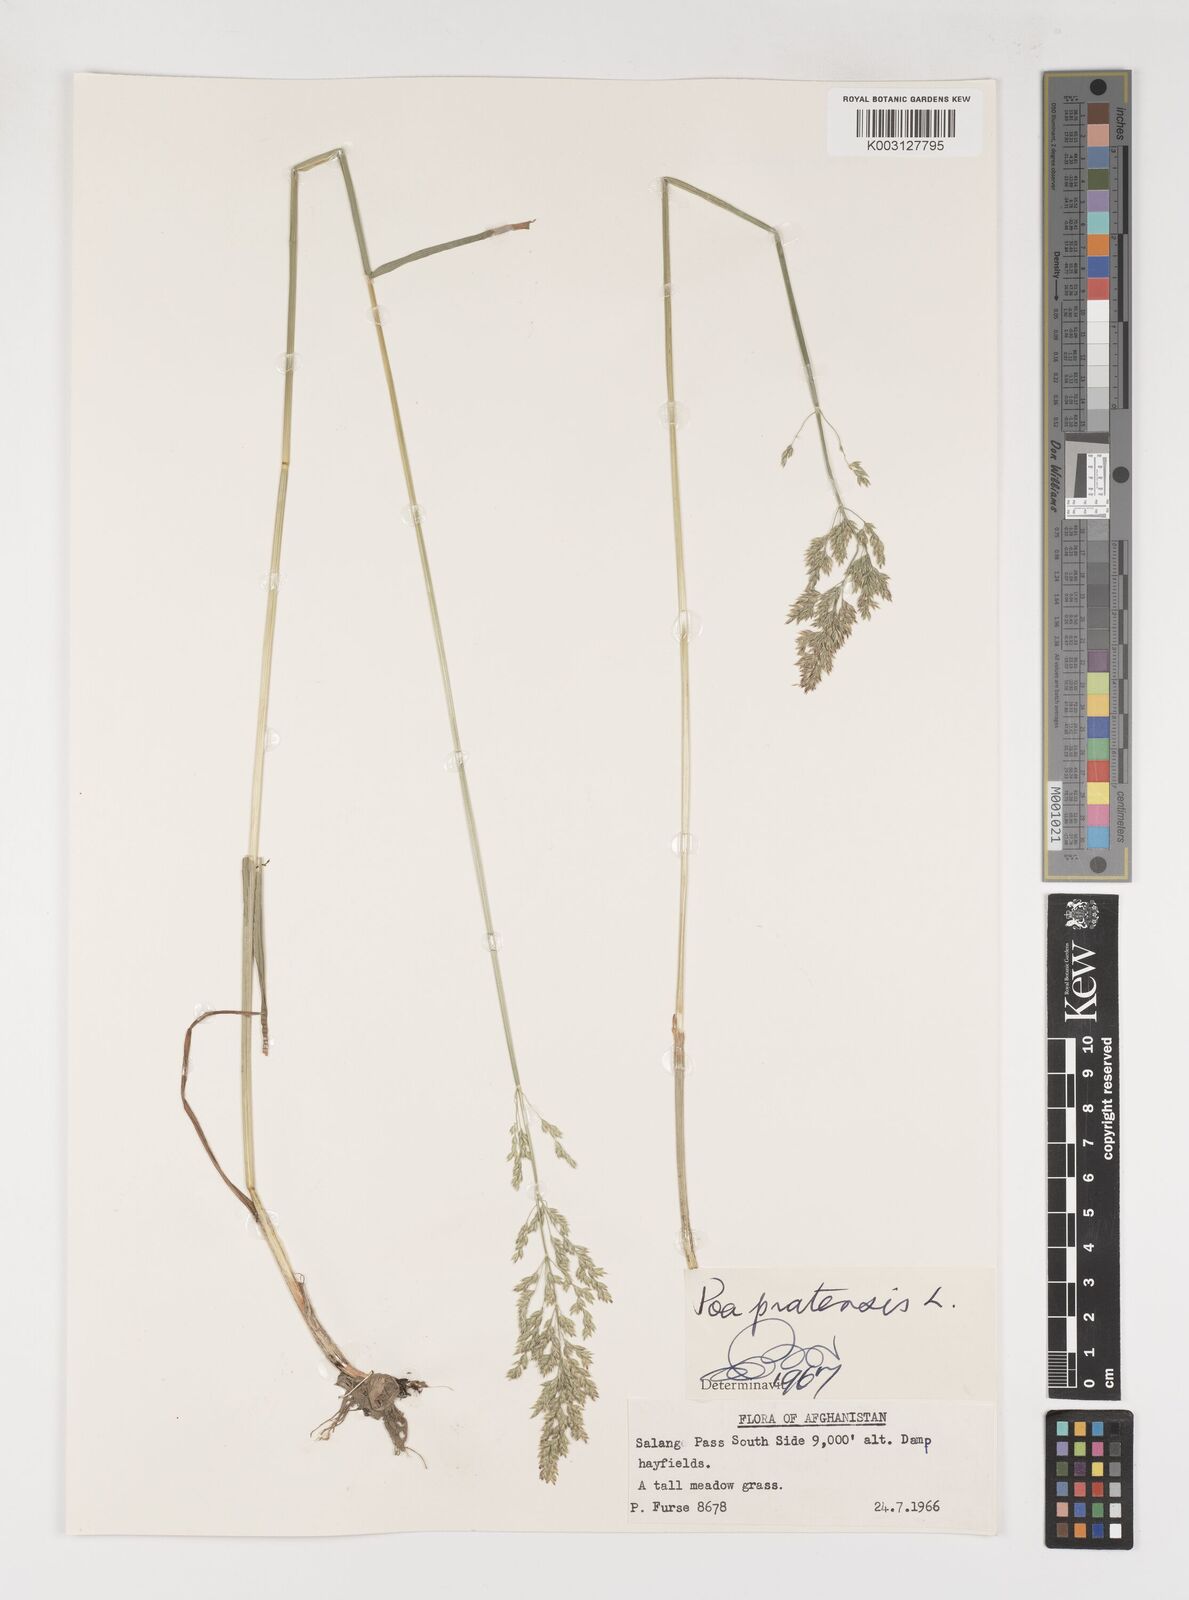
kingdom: Plantae
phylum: Tracheophyta
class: Liliopsida
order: Poales
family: Poaceae
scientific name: Poaceae
